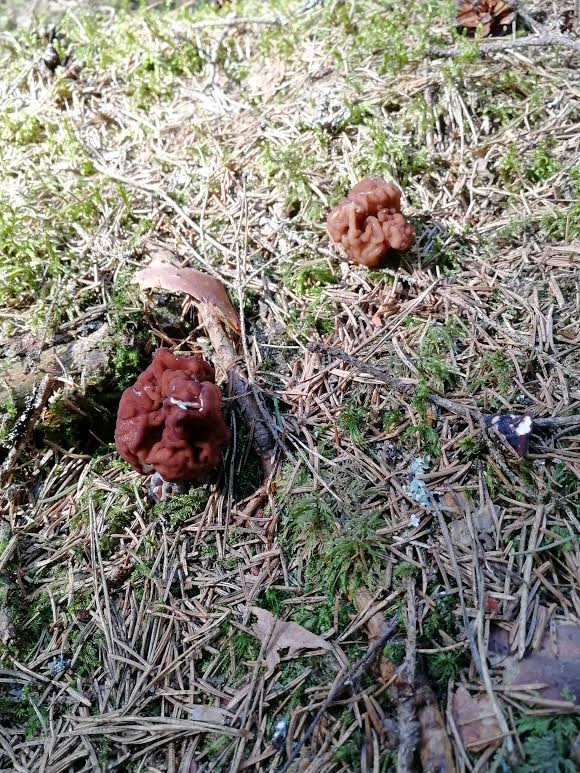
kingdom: Fungi
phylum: Ascomycota
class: Pezizomycetes
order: Pezizales
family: Discinaceae
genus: Gyromitra
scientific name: Gyromitra esculenta
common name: False morel
